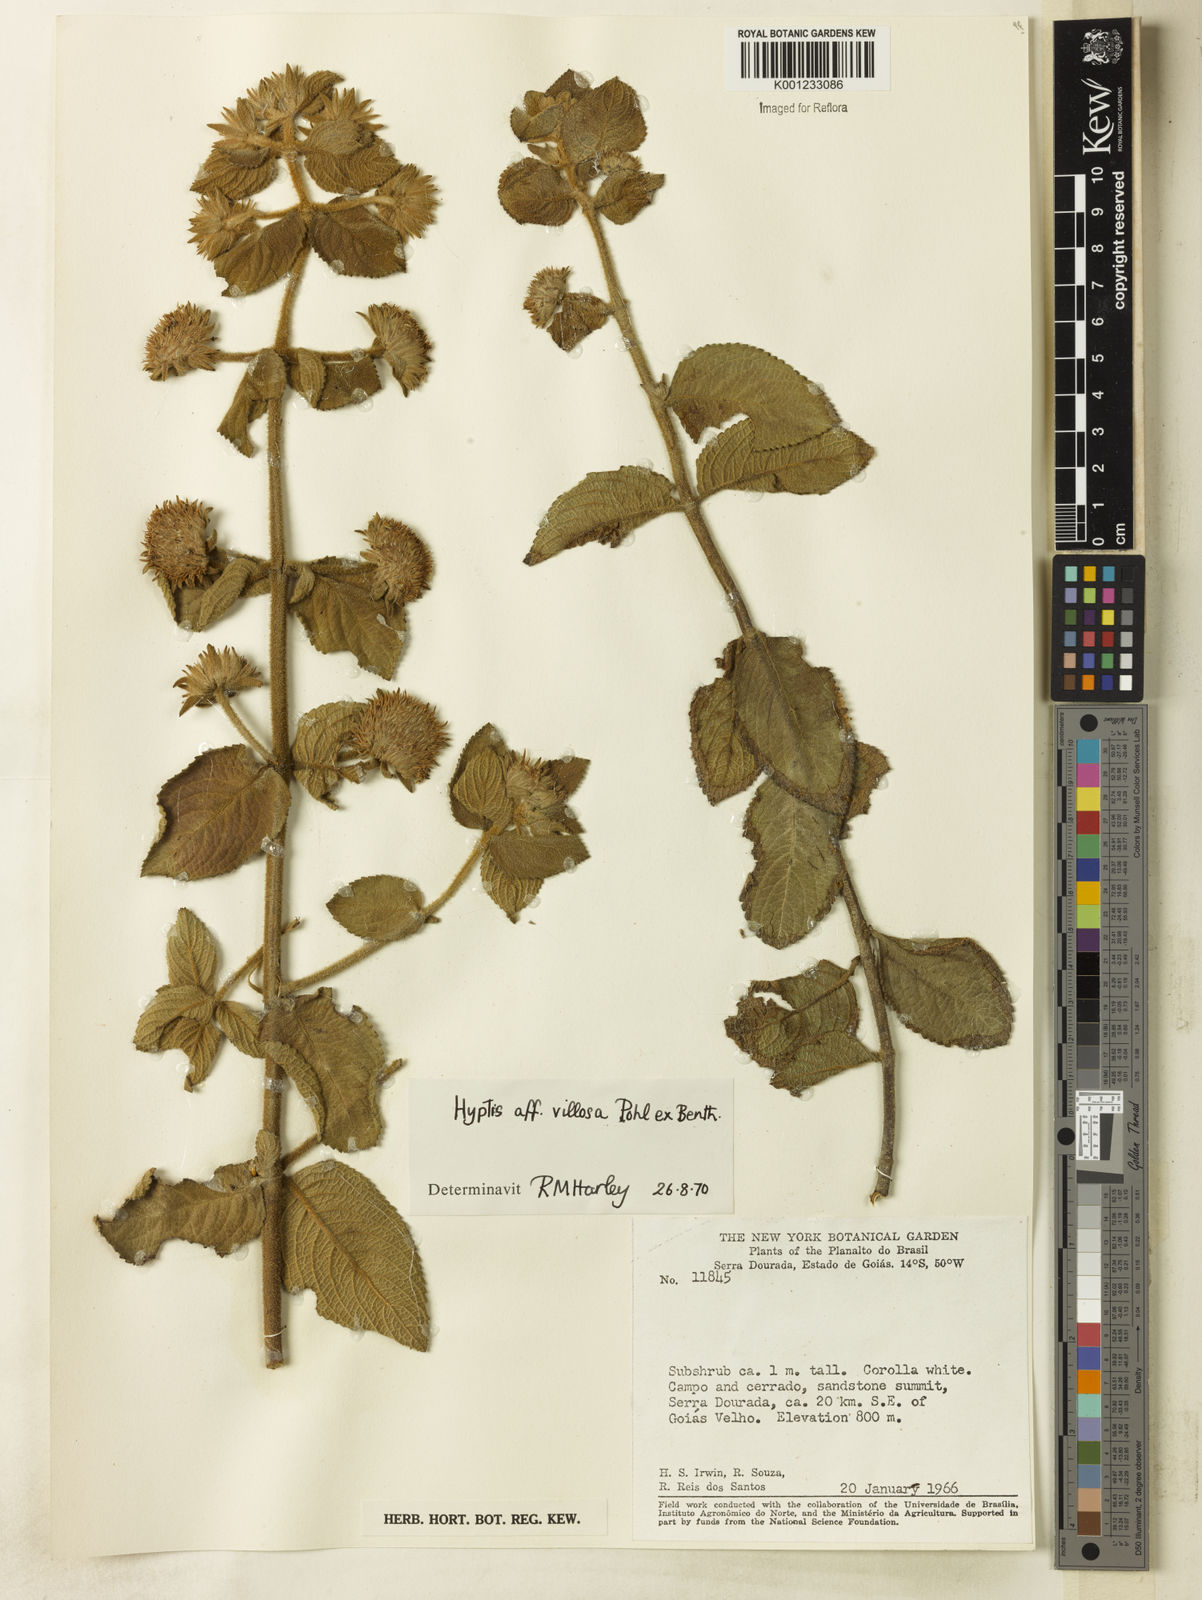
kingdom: Plantae
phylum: Tracheophyta
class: Magnoliopsida
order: Lamiales
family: Lamiaceae
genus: Hyptis
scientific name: Hyptis villosa
